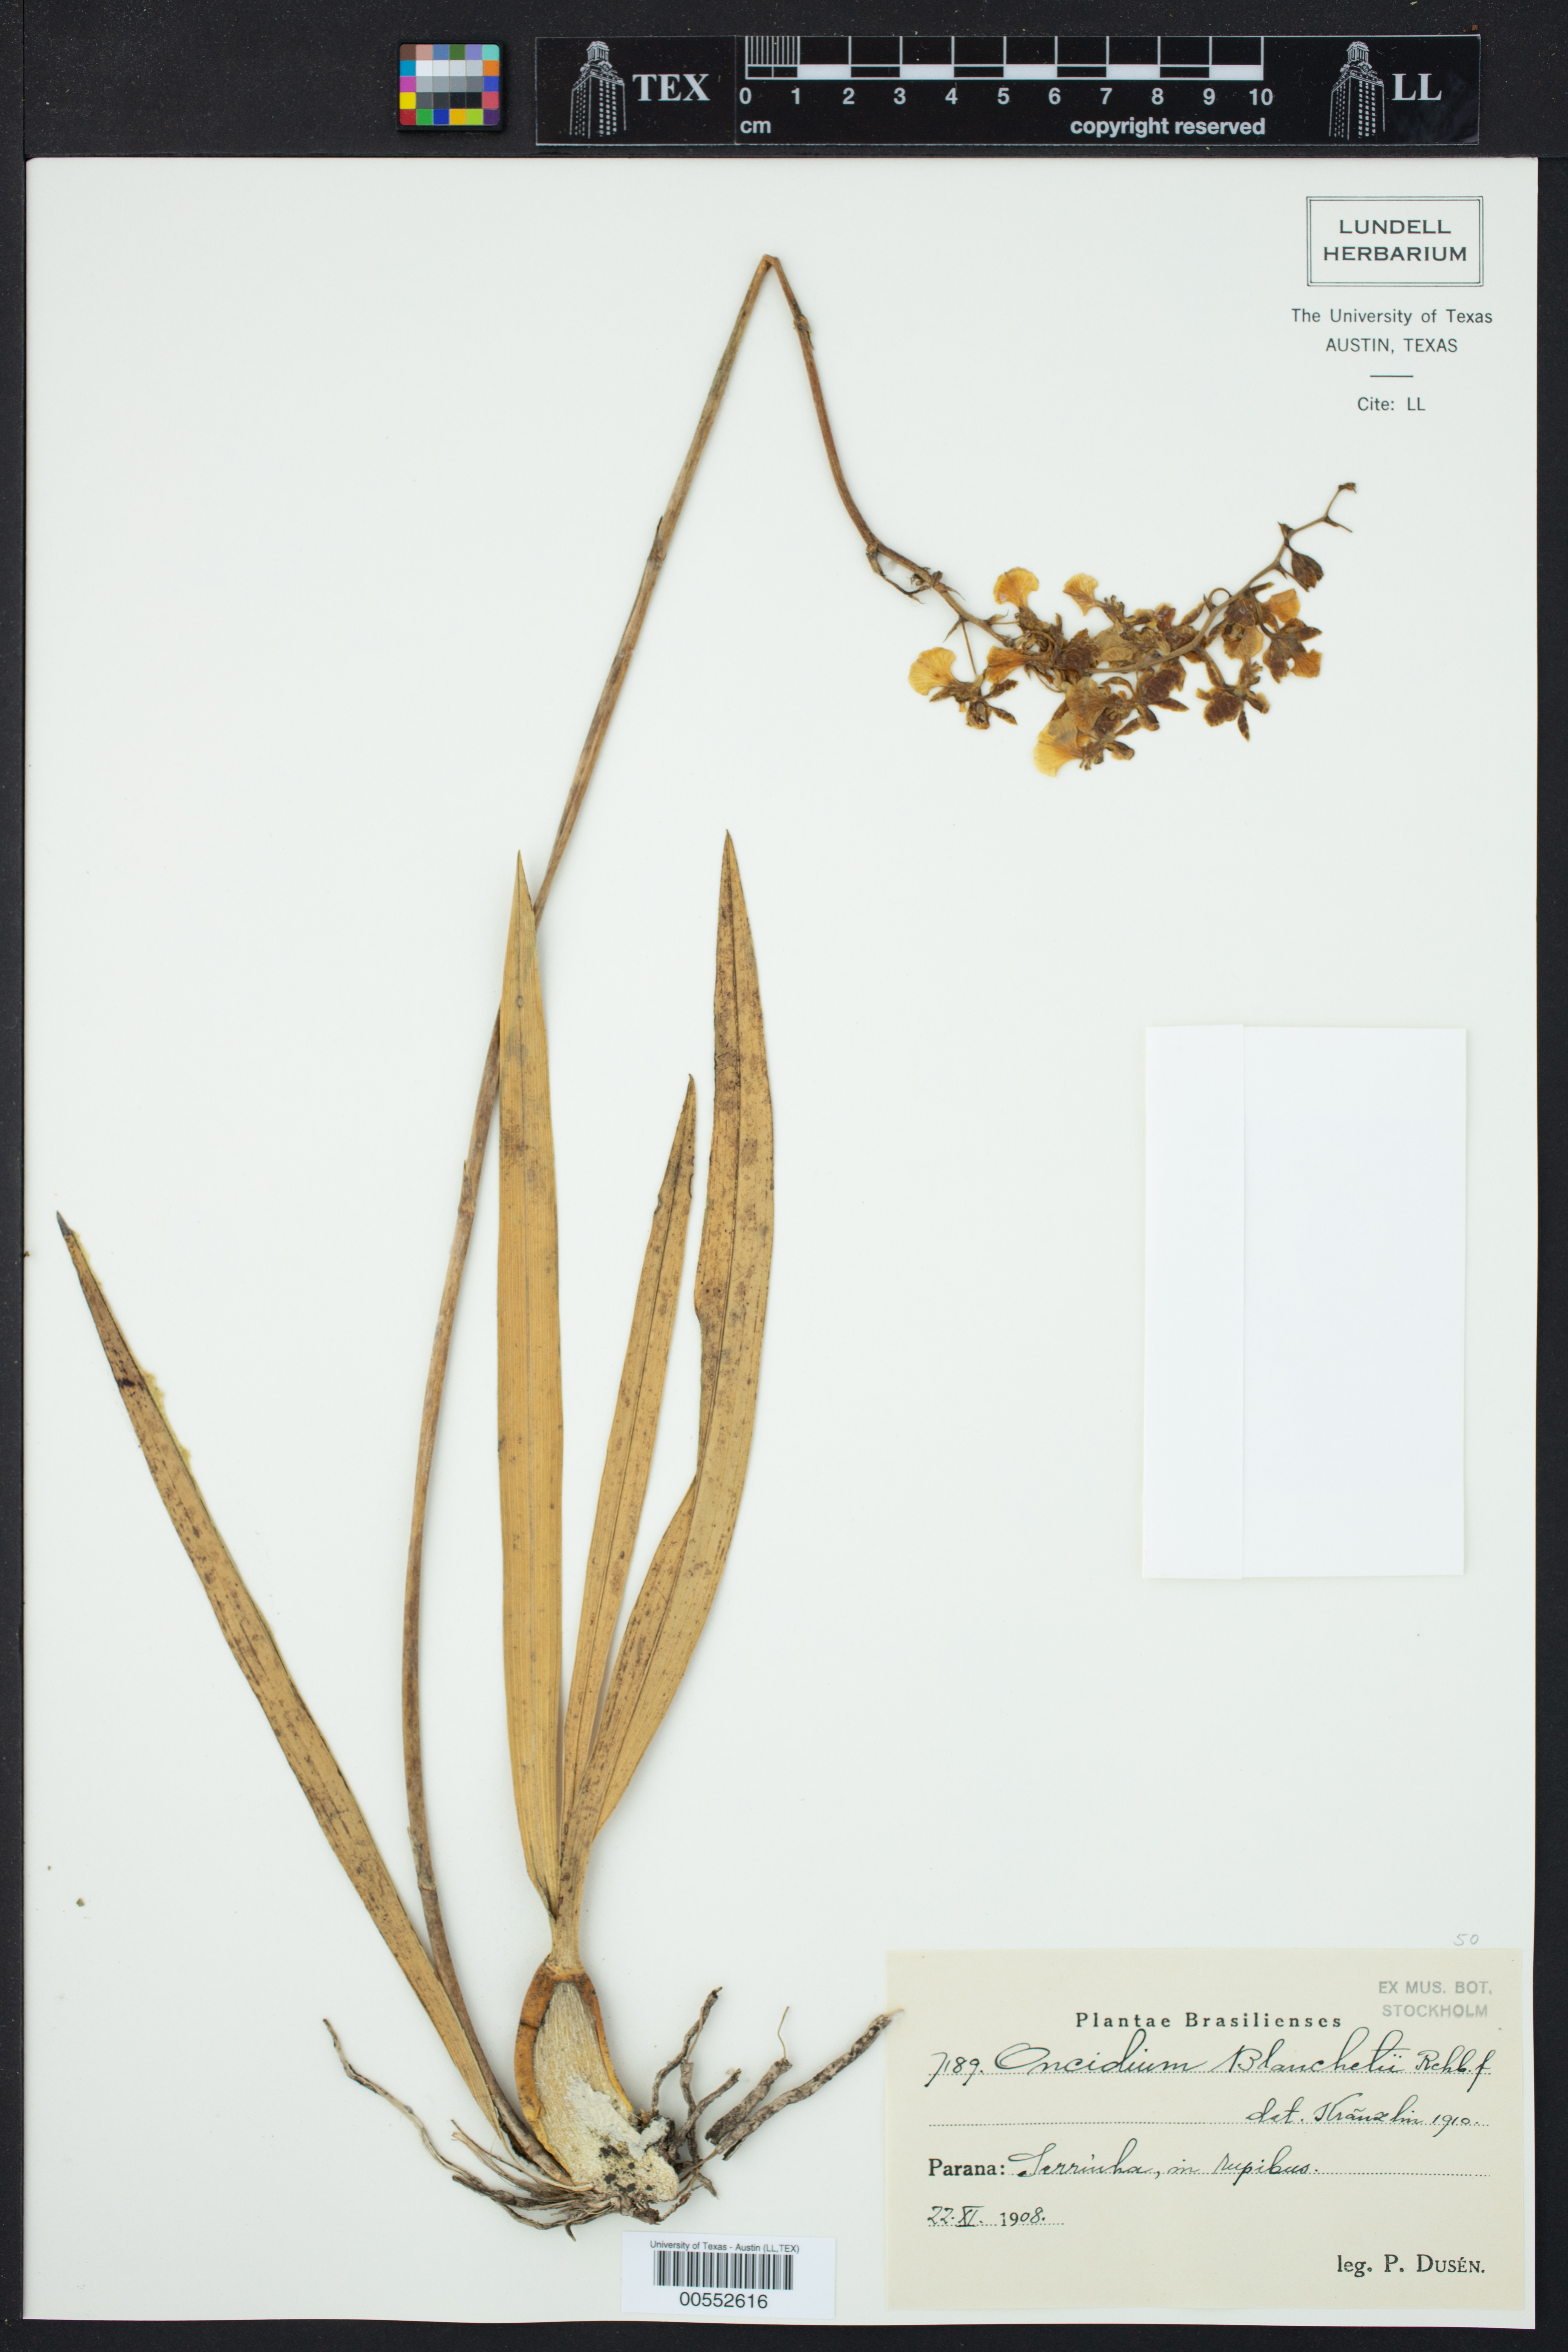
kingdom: Plantae
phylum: Tracheophyta
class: Liliopsida
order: Asparagales
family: Orchidaceae
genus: Gomesa
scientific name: Gomesa blanchetii
